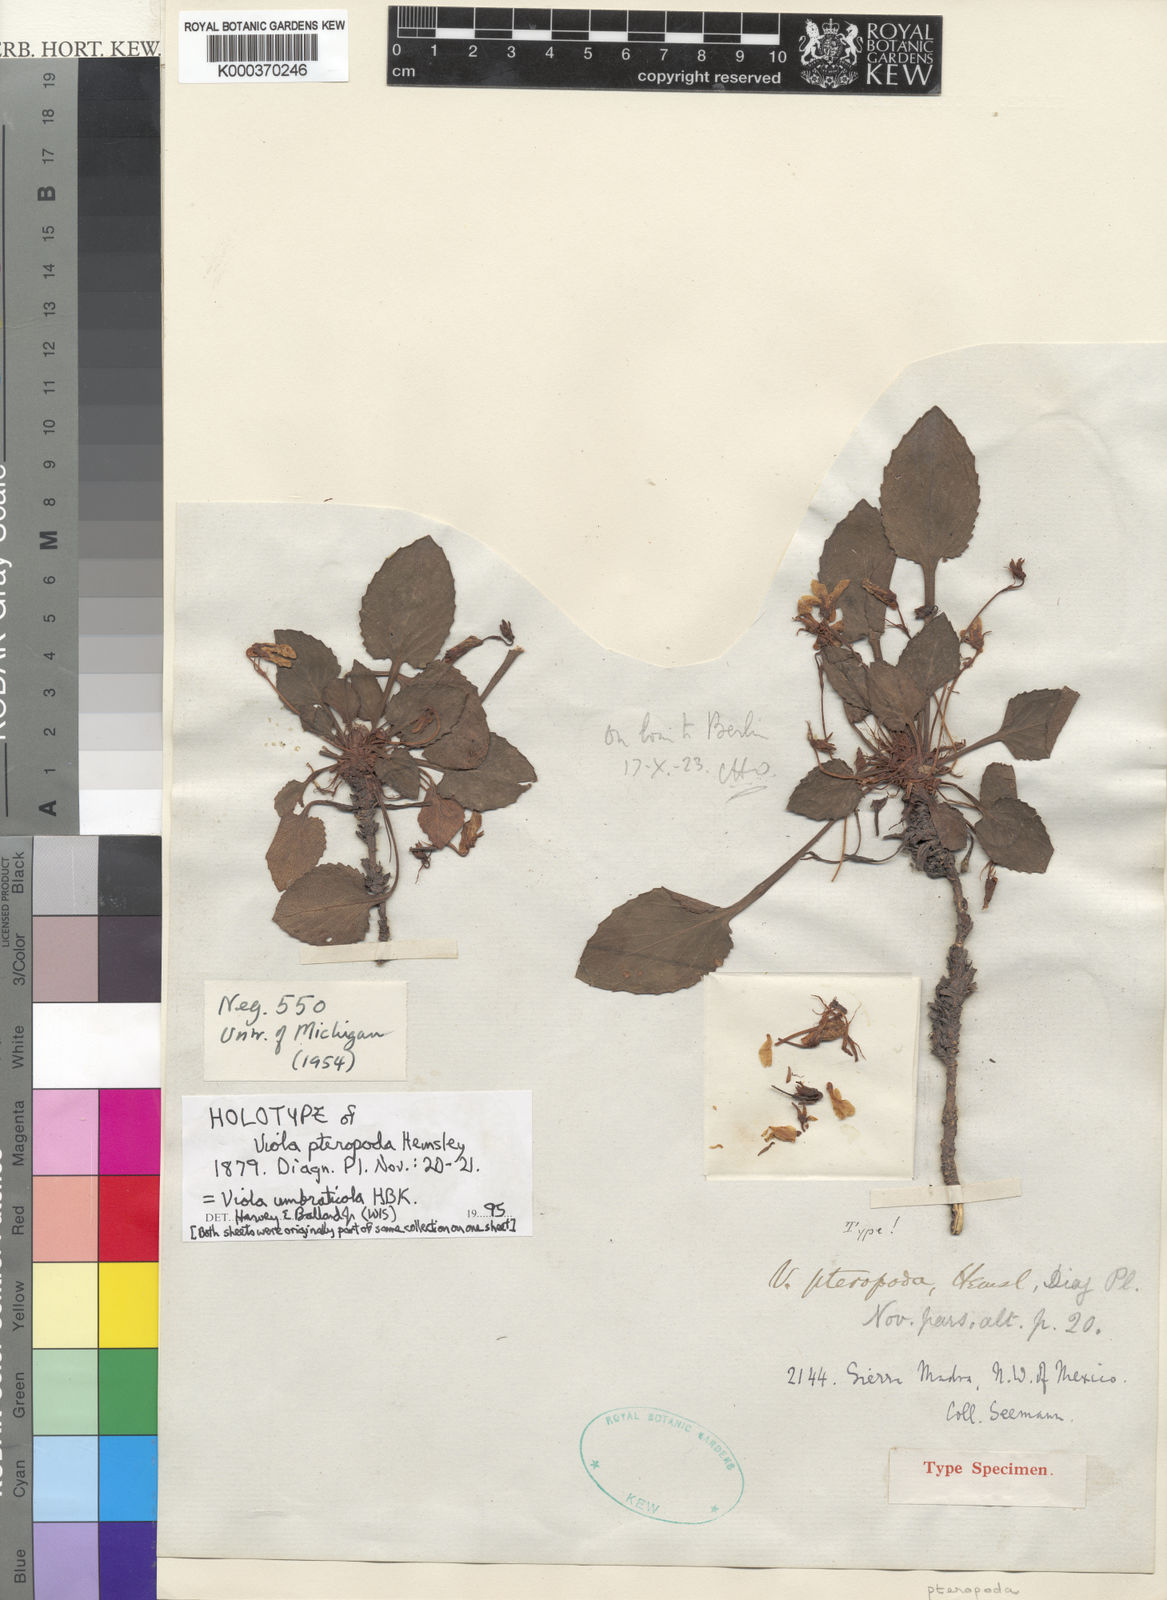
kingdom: Plantae
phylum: Tracheophyta
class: Magnoliopsida
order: Malpighiales
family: Violaceae
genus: Viola
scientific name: Viola
